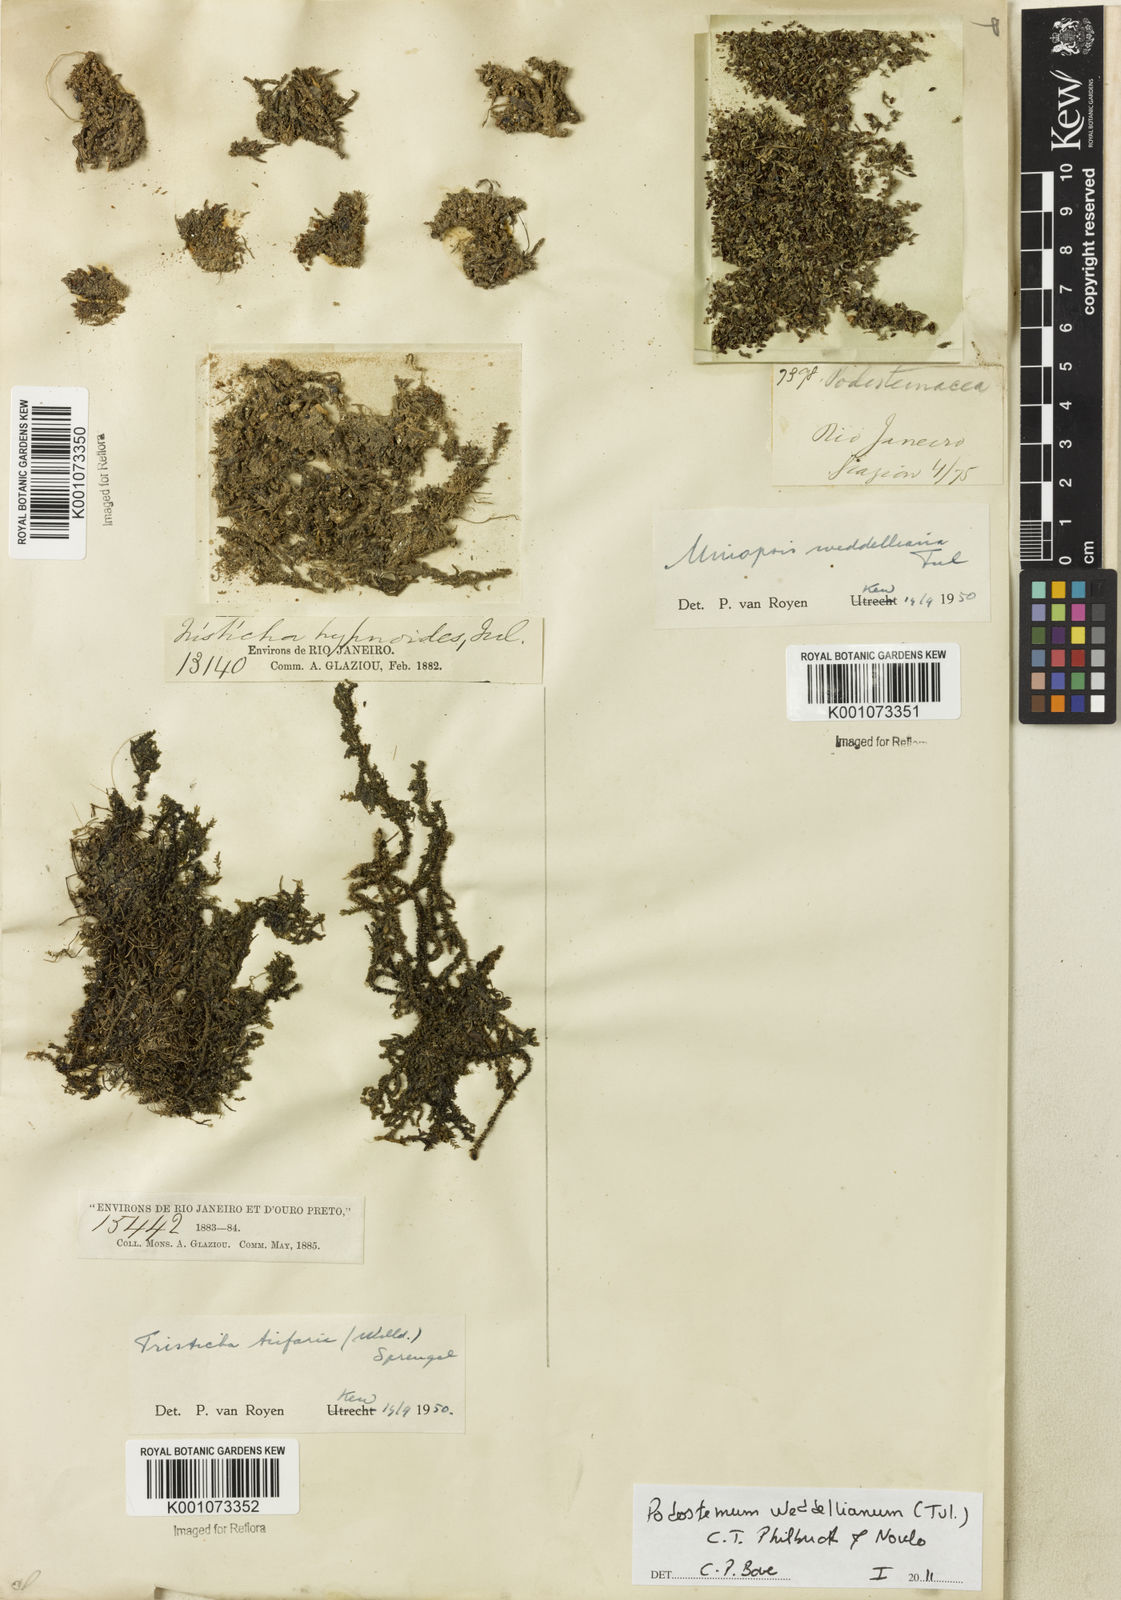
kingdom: Plantae
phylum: Tracheophyta
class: Magnoliopsida
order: Malpighiales
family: Podostemaceae
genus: Podostemum
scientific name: Podostemum weddellianum
